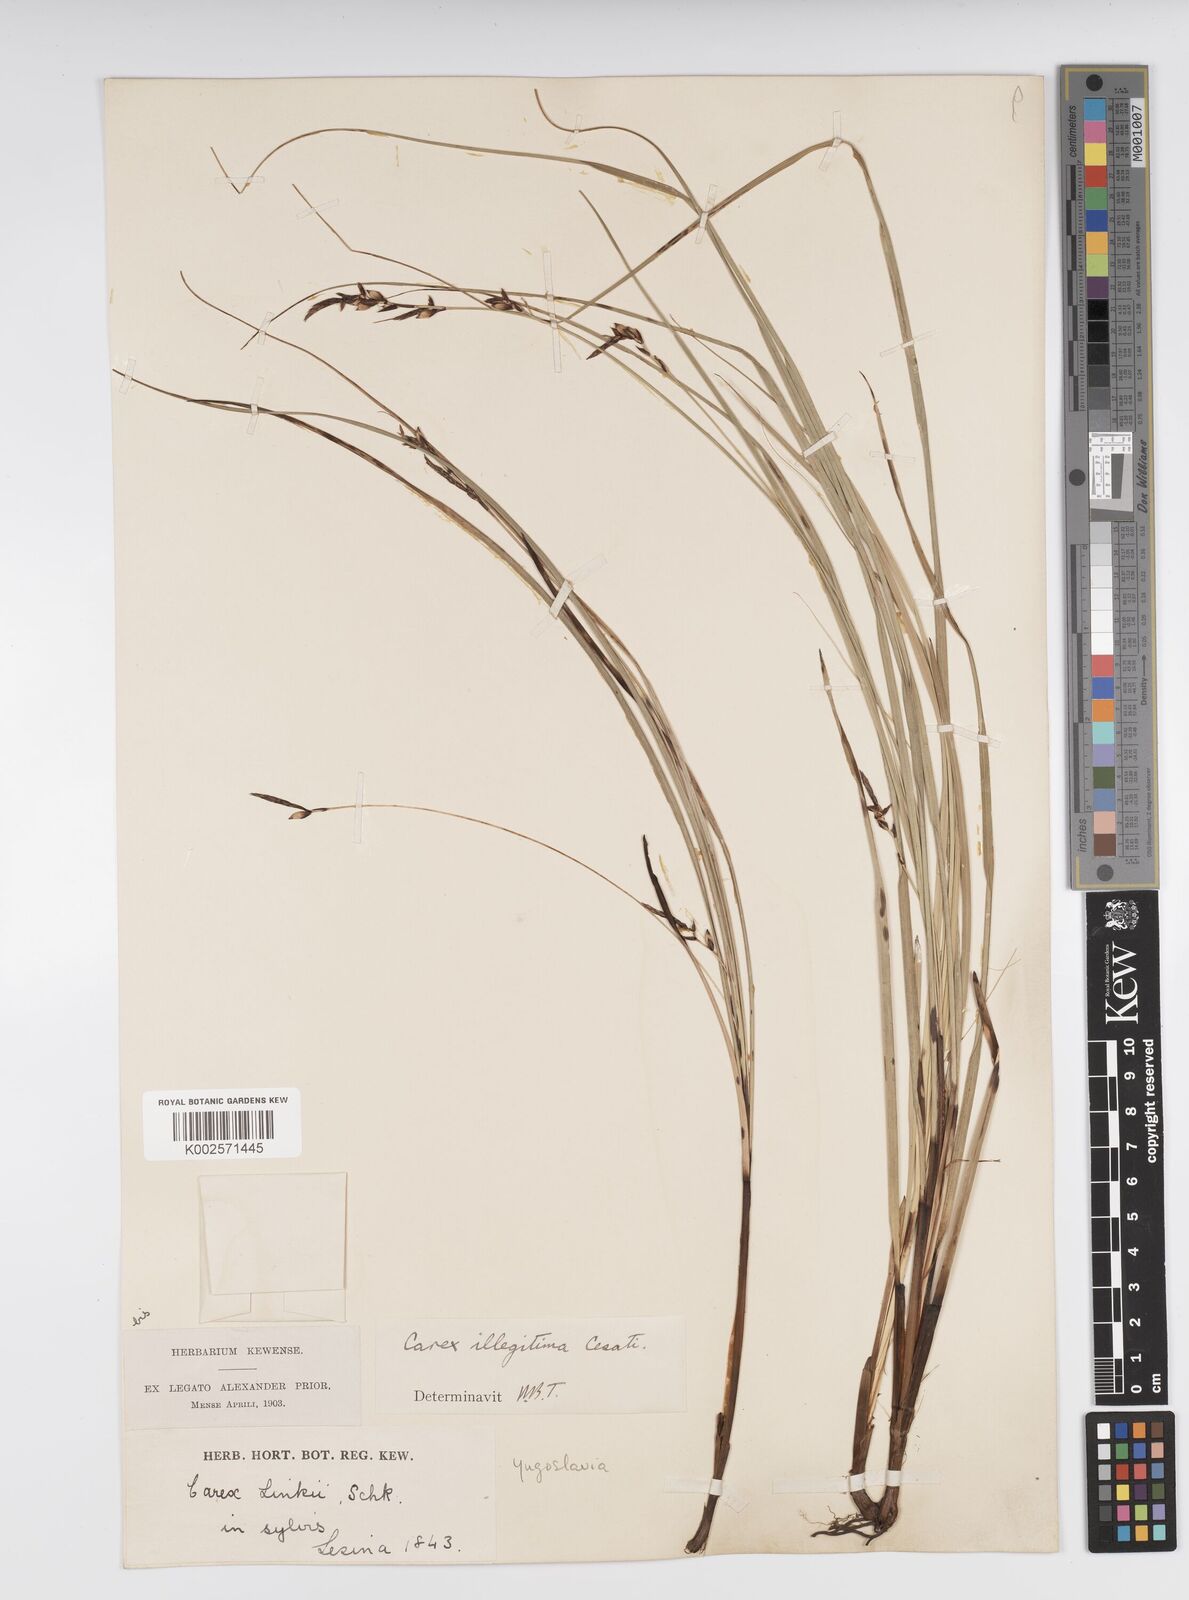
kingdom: Plantae
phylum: Tracheophyta
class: Liliopsida
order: Poales
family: Cyperaceae
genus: Carex
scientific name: Carex illegitima
